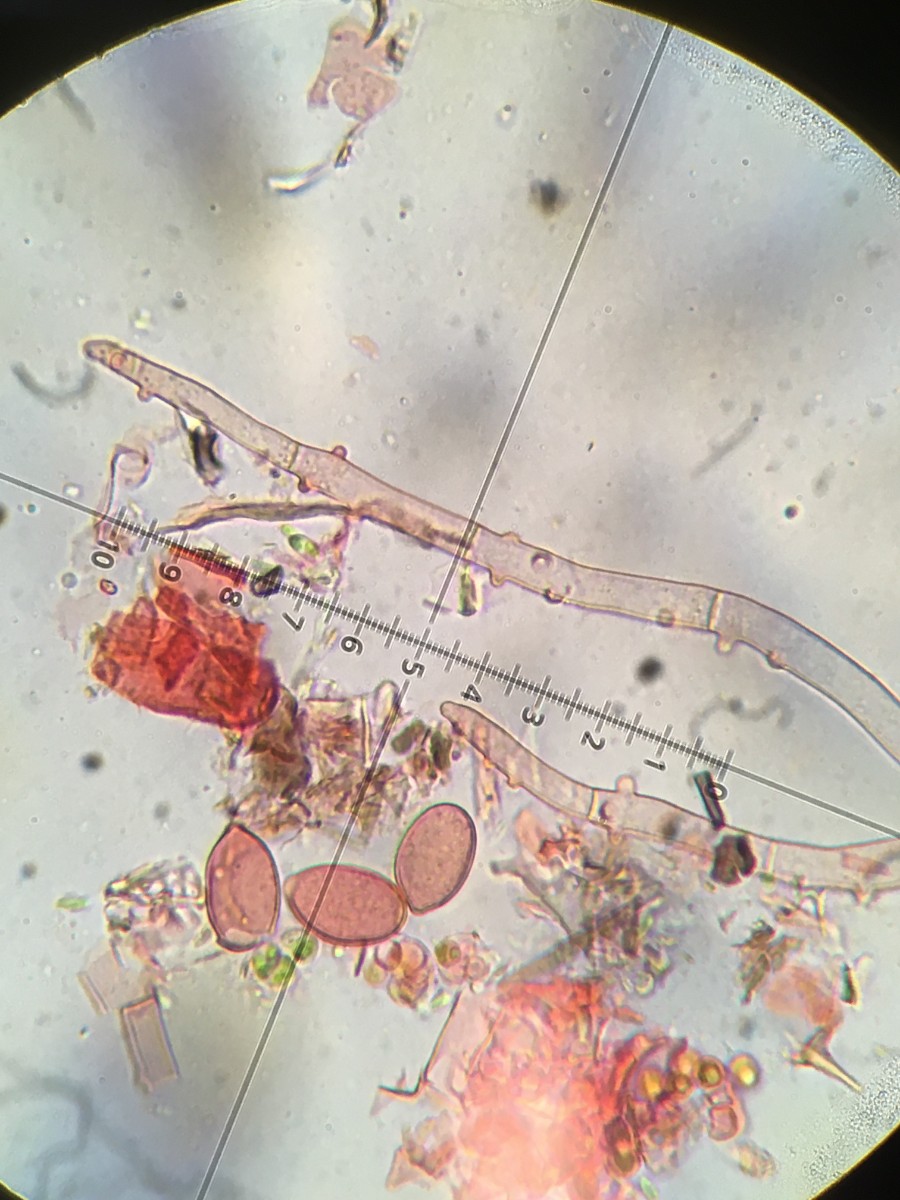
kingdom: Fungi
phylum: Basidiomycota
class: Agaricomycetes
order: Cantharellales
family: Botryobasidiaceae
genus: Botryobasidium
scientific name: Botryobasidium conspersum
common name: olivengrå spindhinde
